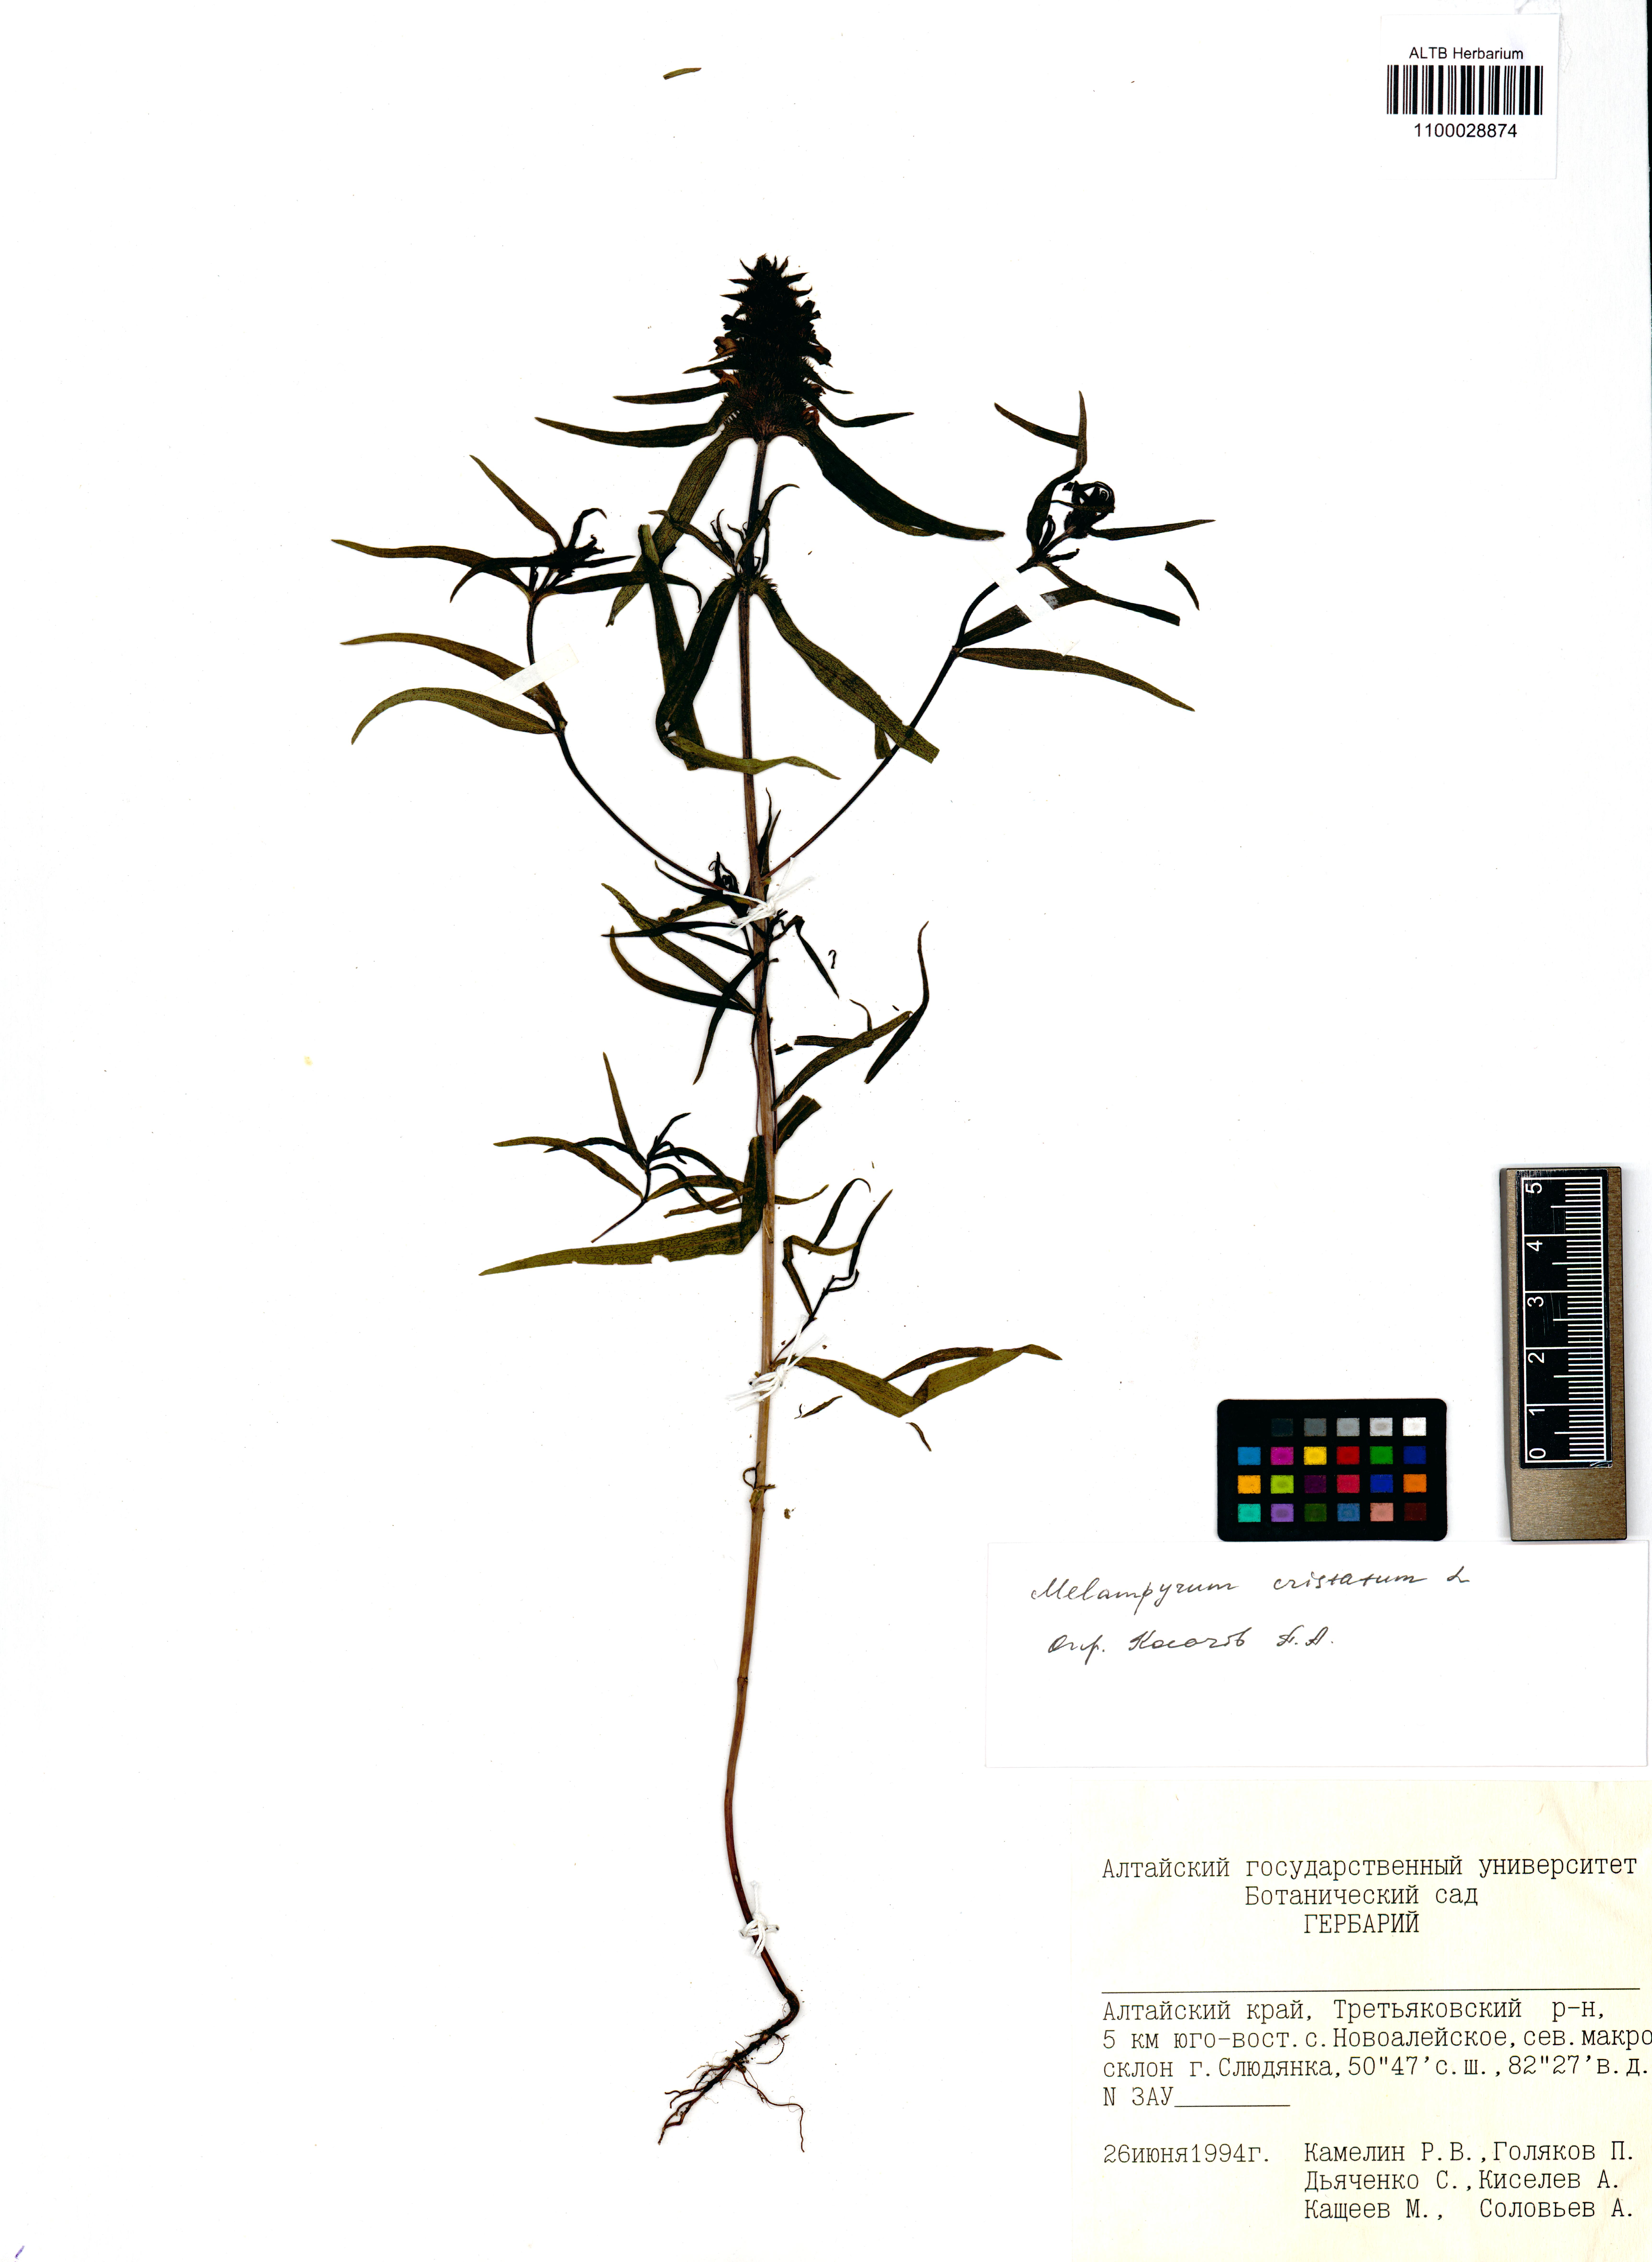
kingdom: Plantae
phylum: Tracheophyta
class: Magnoliopsida
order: Lamiales
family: Orobanchaceae
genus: Melampyrum
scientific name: Melampyrum cristatum
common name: Crested cow-wheat
